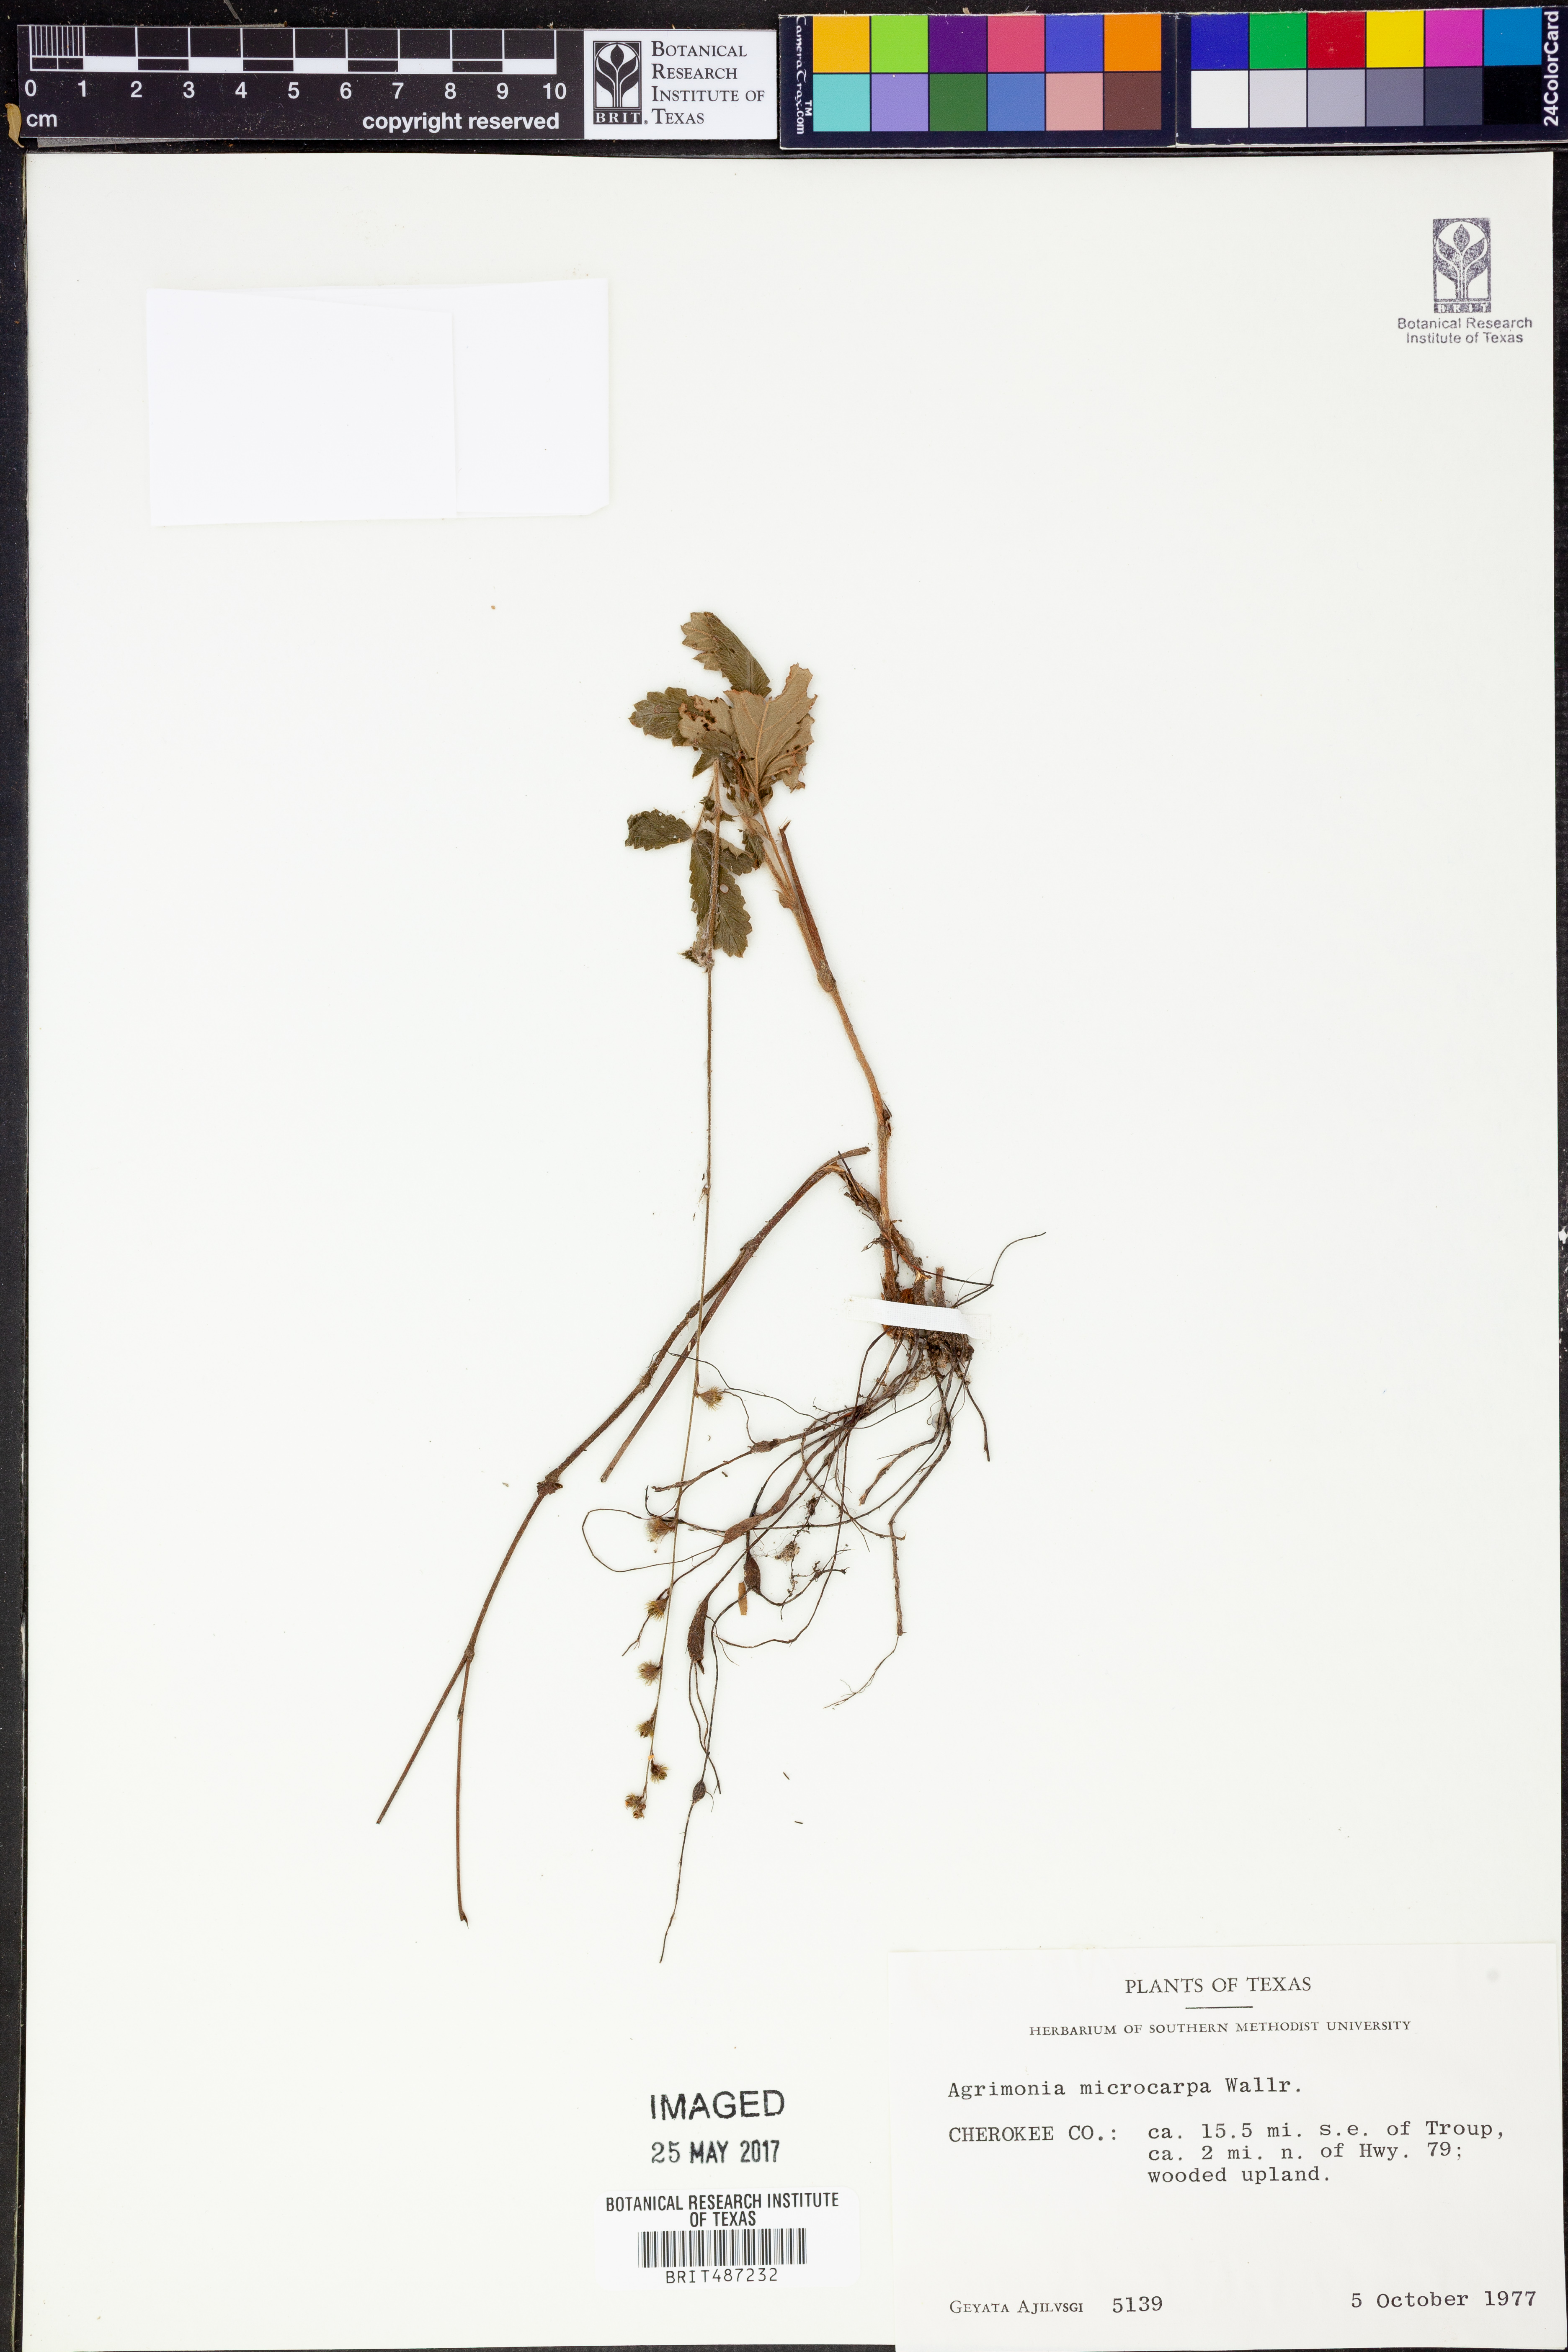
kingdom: Plantae
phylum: Tracheophyta
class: Magnoliopsida
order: Rosales
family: Rosaceae
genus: Agrimonia
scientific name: Agrimonia microcarpa
